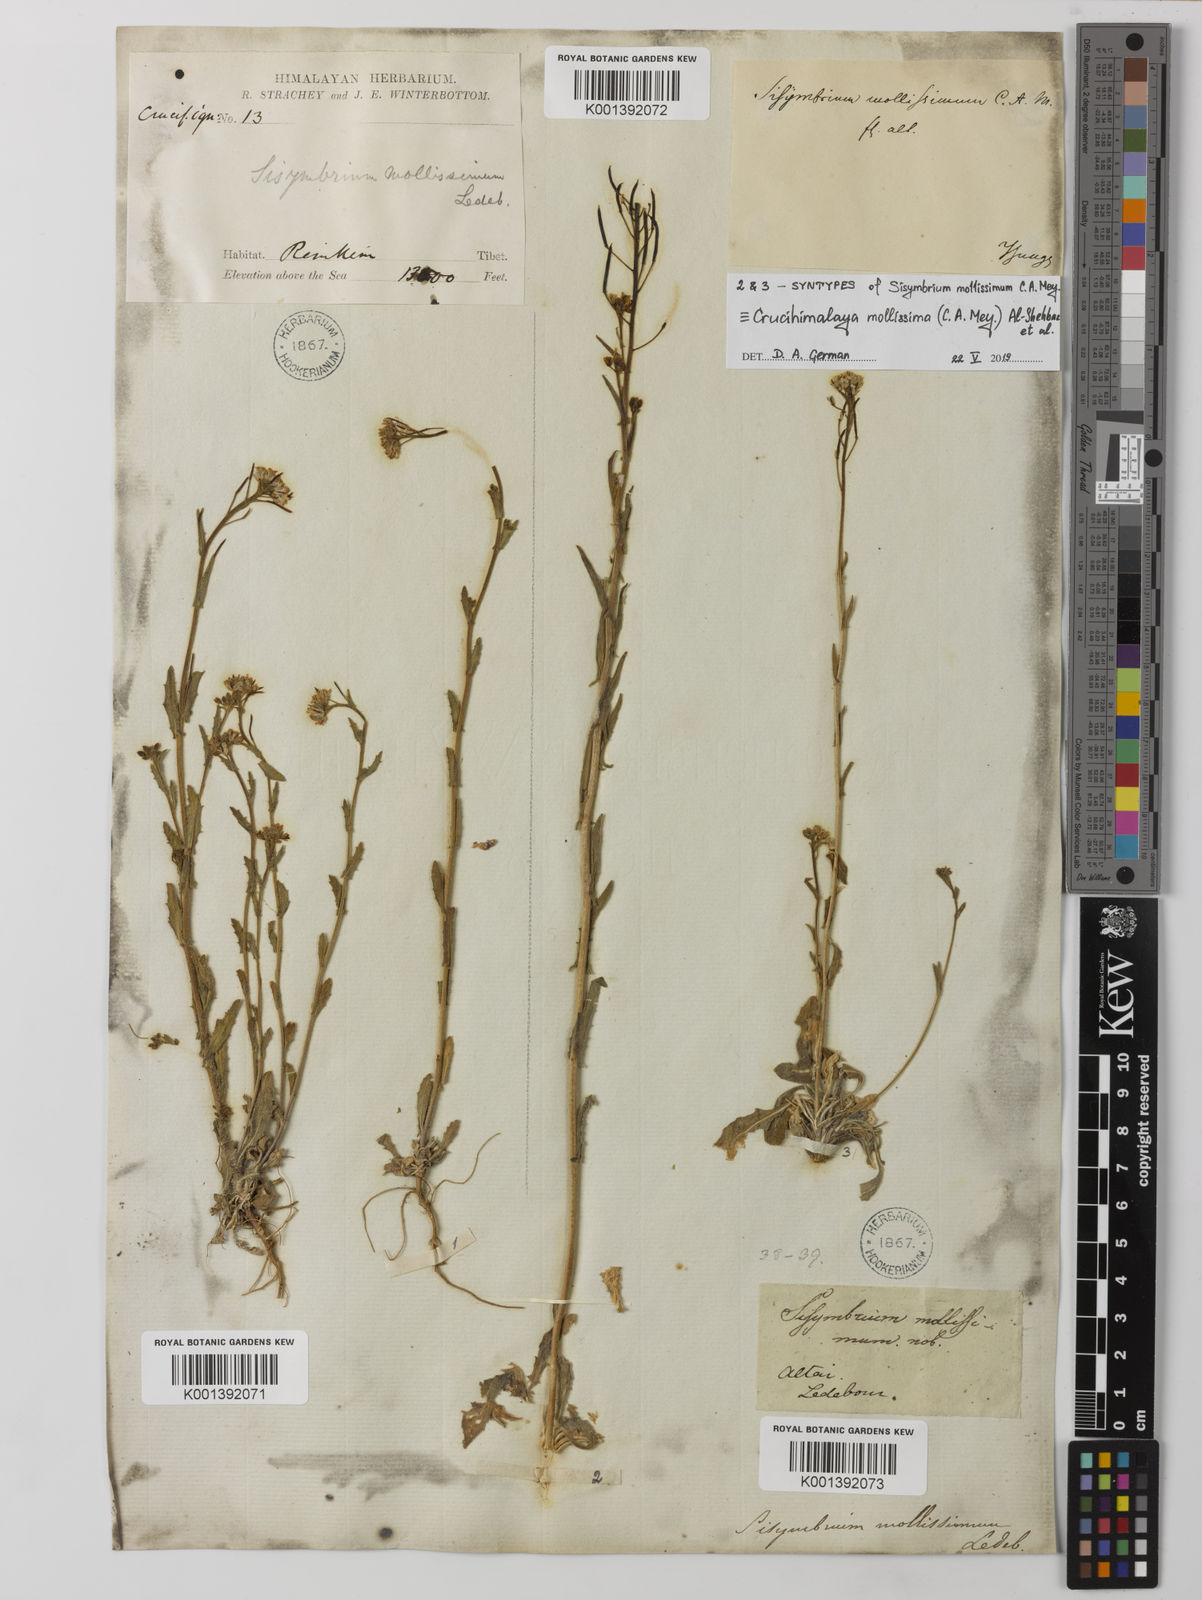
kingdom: Plantae
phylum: Tracheophyta
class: Magnoliopsida
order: Brassicales
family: Brassicaceae
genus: Sisymbrium
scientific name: Sisymbrium
